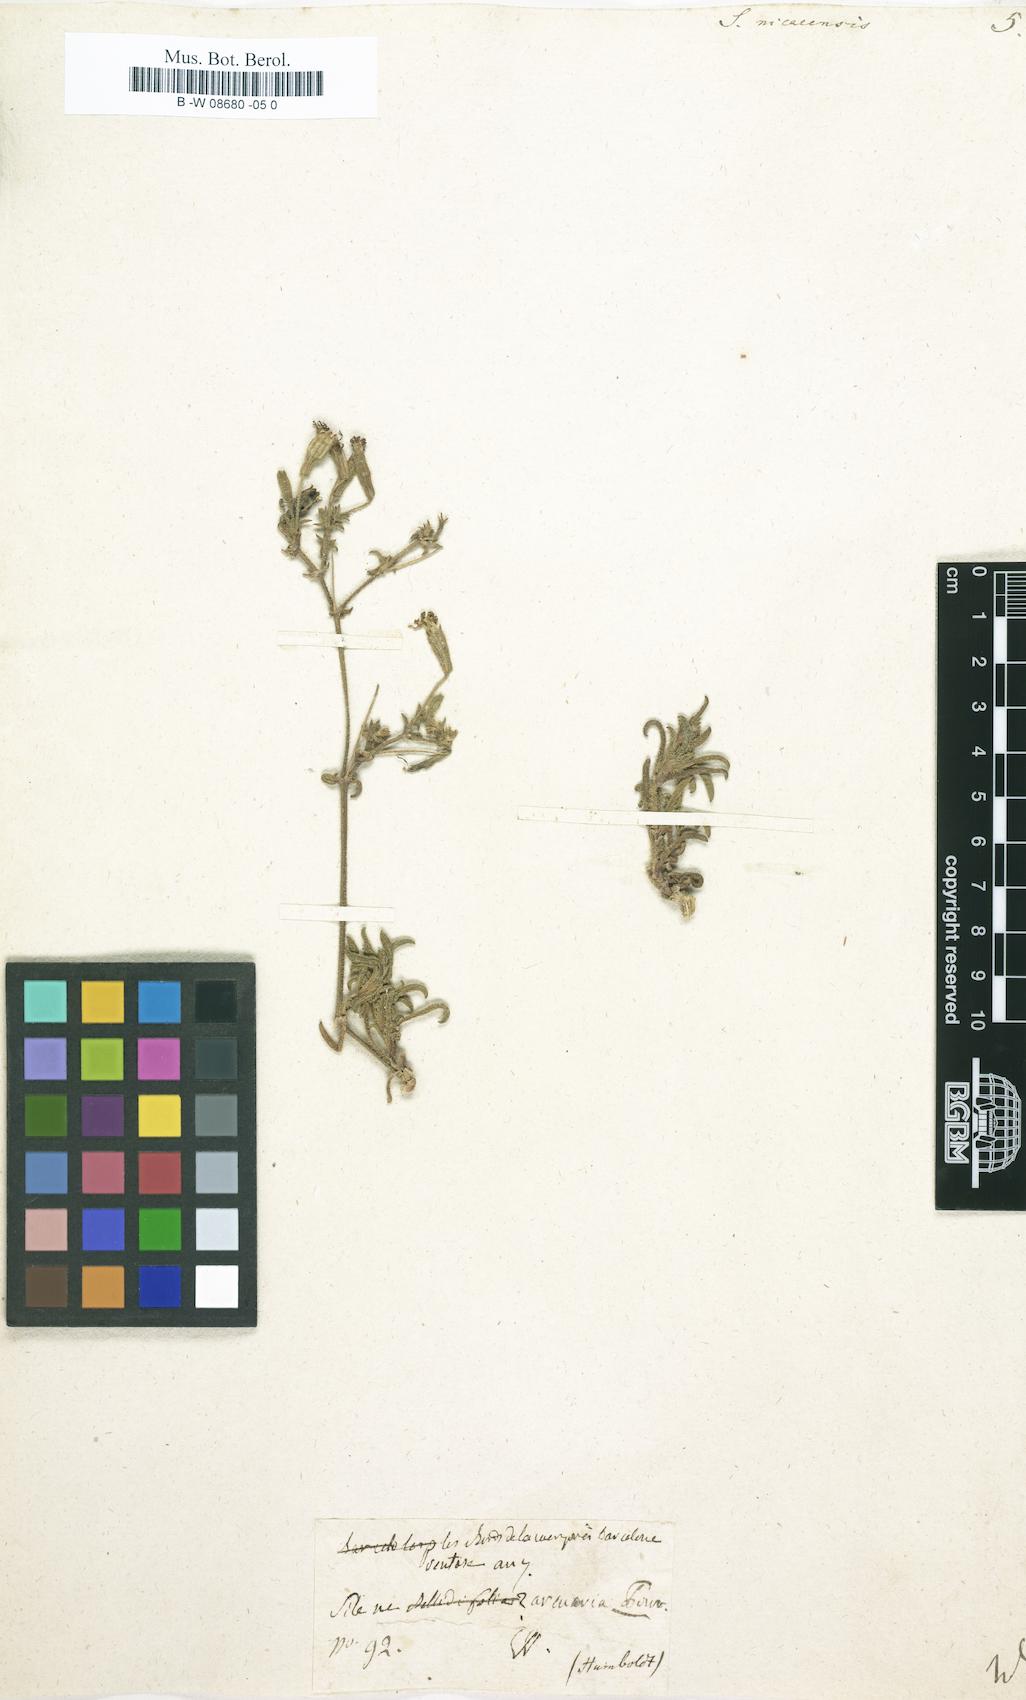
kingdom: Plantae
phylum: Tracheophyta
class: Magnoliopsida
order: Caryophyllales
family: Caryophyllaceae
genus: Silene
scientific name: Silene nicaeensis
